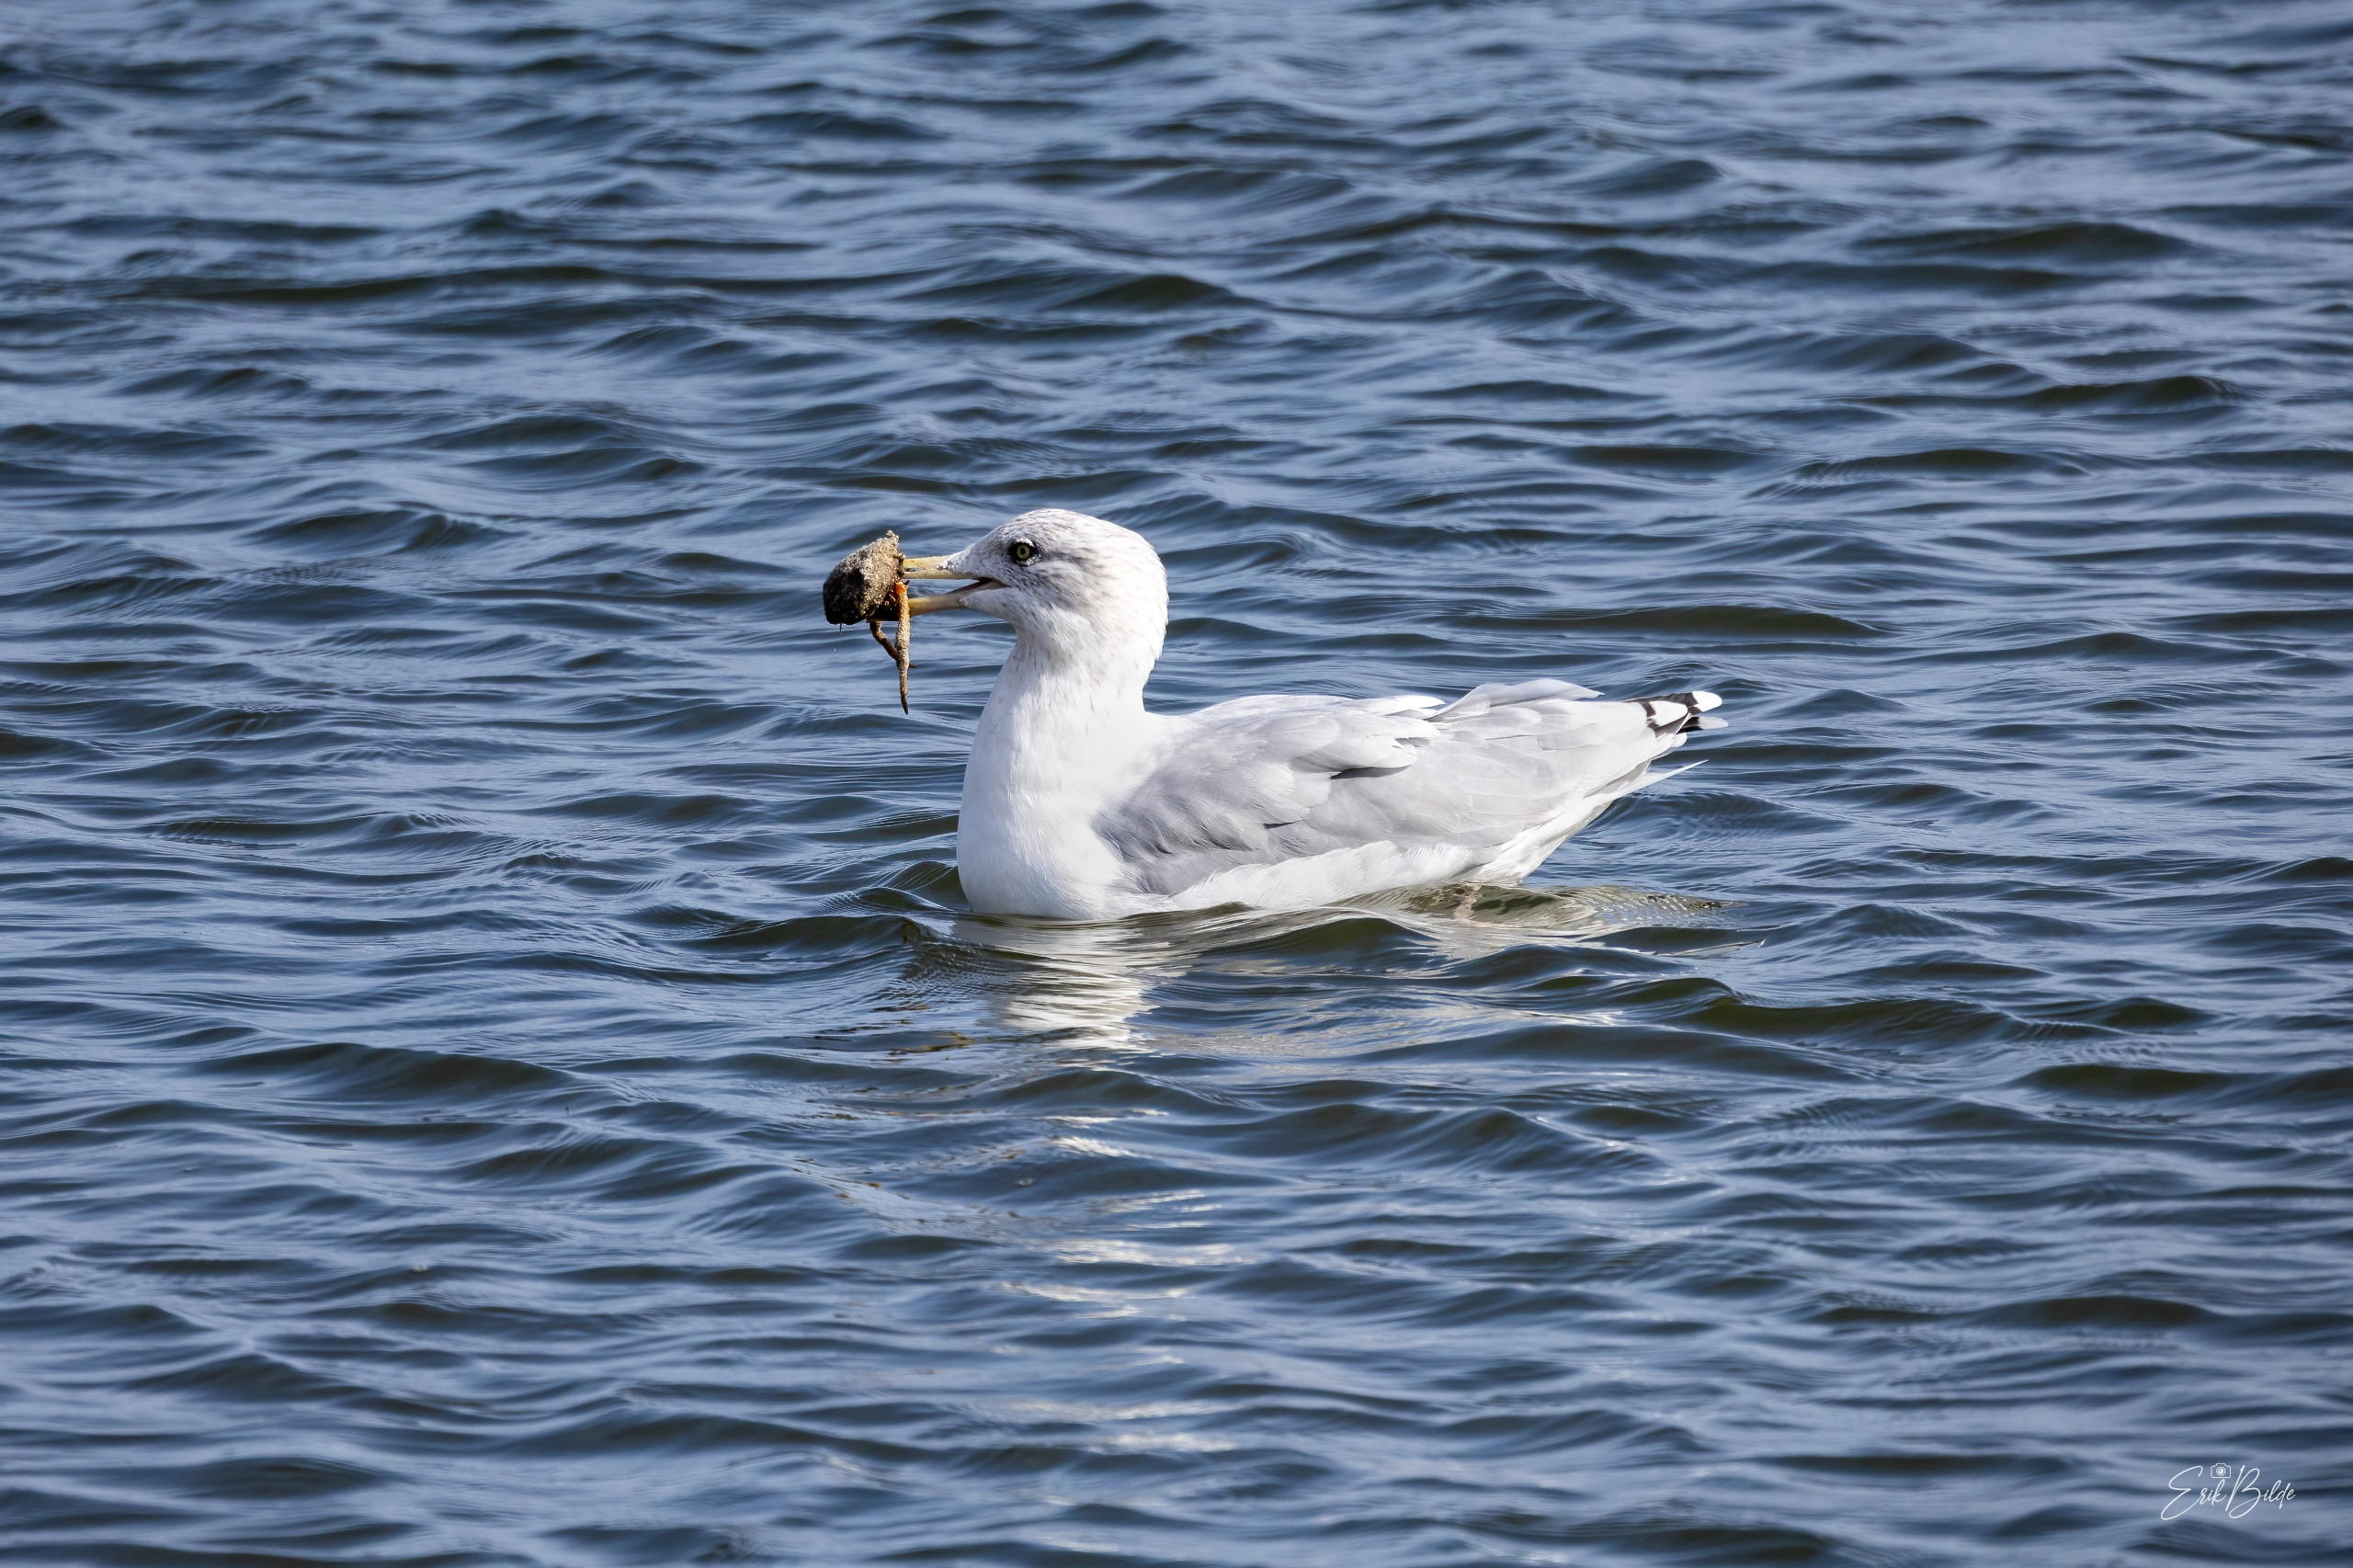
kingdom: Animalia
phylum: Chordata
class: Aves
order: Charadriiformes
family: Laridae
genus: Larus
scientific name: Larus argentatus
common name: Sølvmåge
